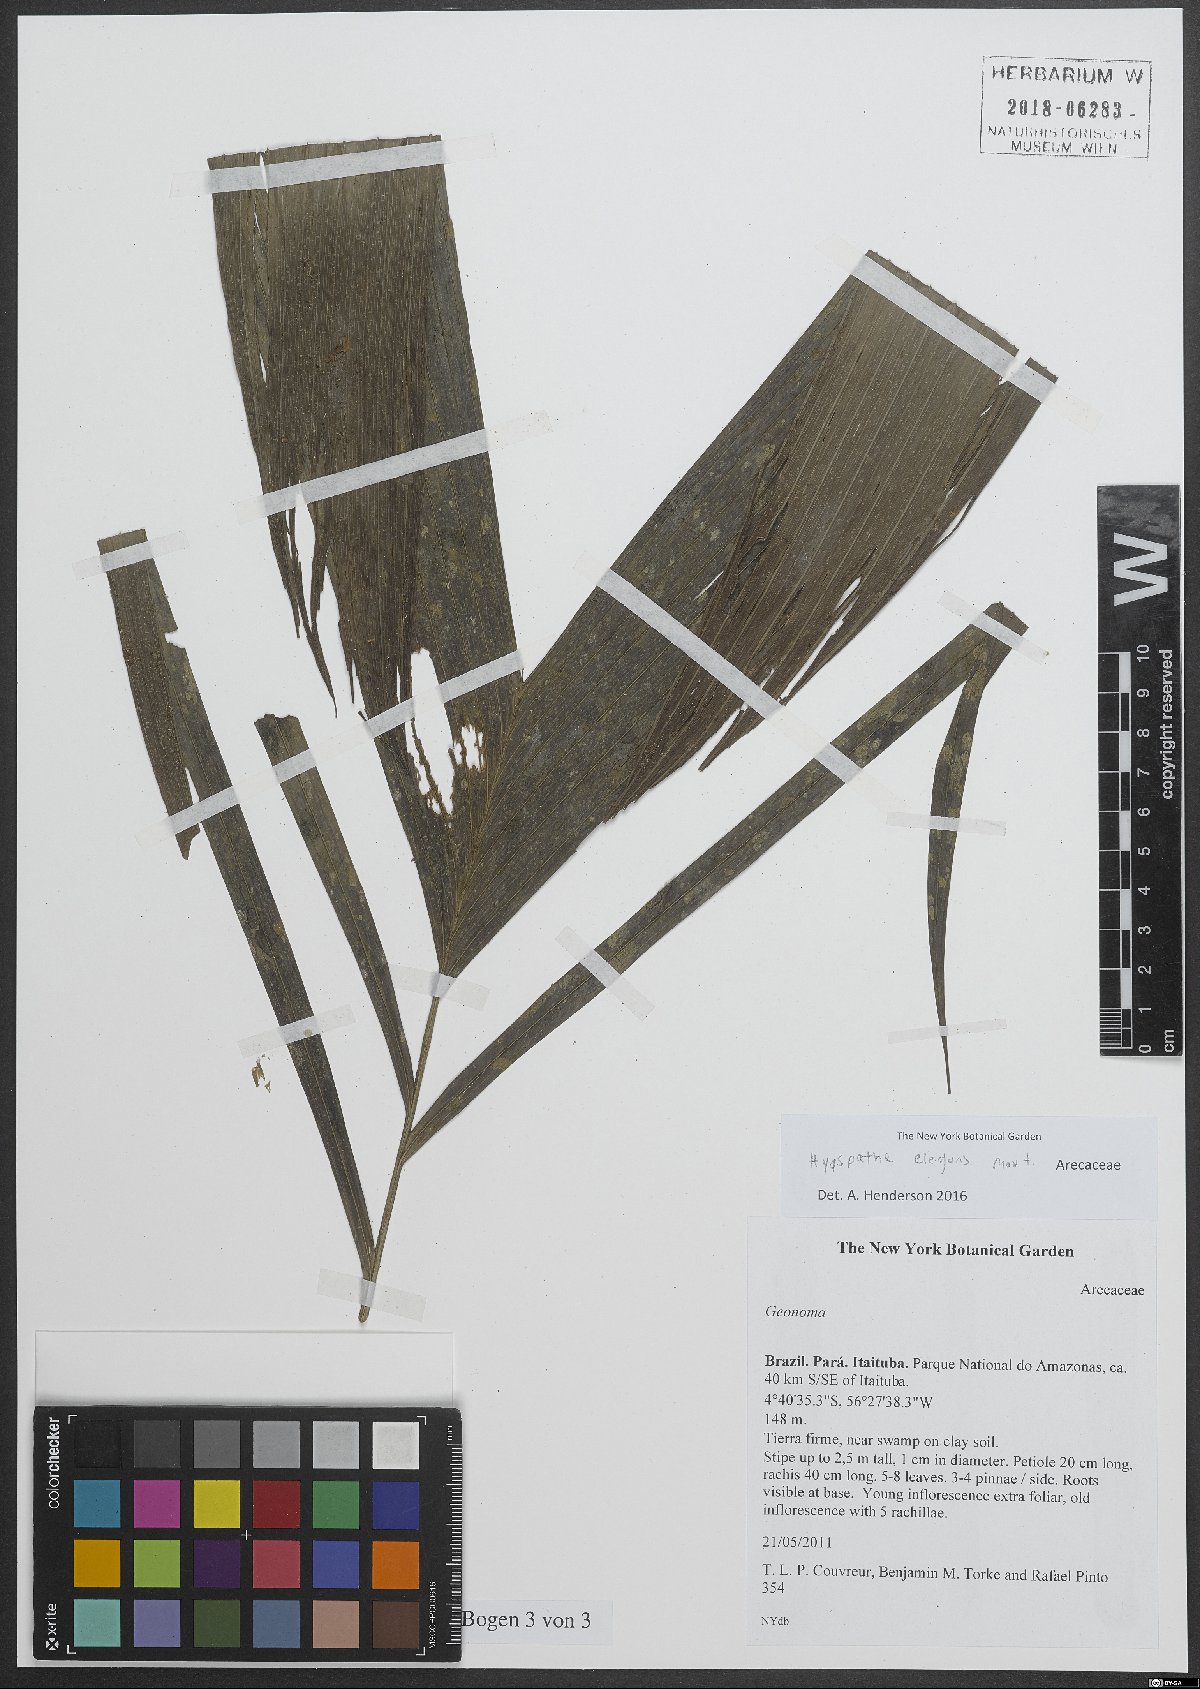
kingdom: Plantae
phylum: Tracheophyta
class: Liliopsida
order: Arecales
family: Arecaceae
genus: Hyospathe
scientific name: Hyospathe elegans
